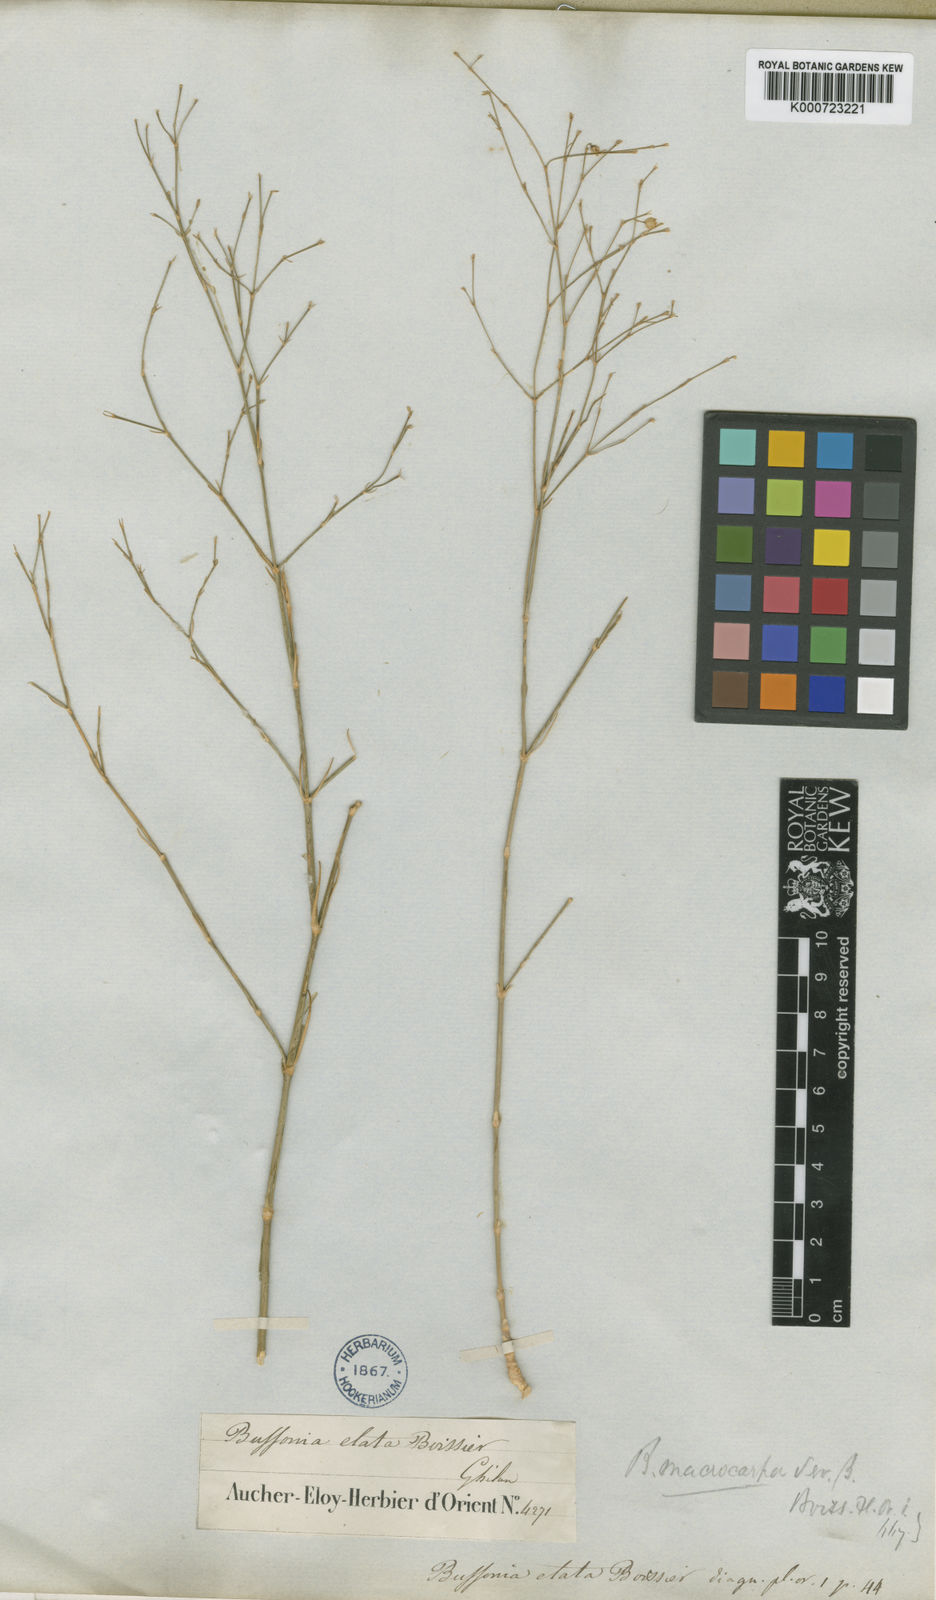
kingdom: Plantae
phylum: Tracheophyta
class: Magnoliopsida
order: Caryophyllales
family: Caryophyllaceae
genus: Bufonia
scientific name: Bufonia macrocarpa
